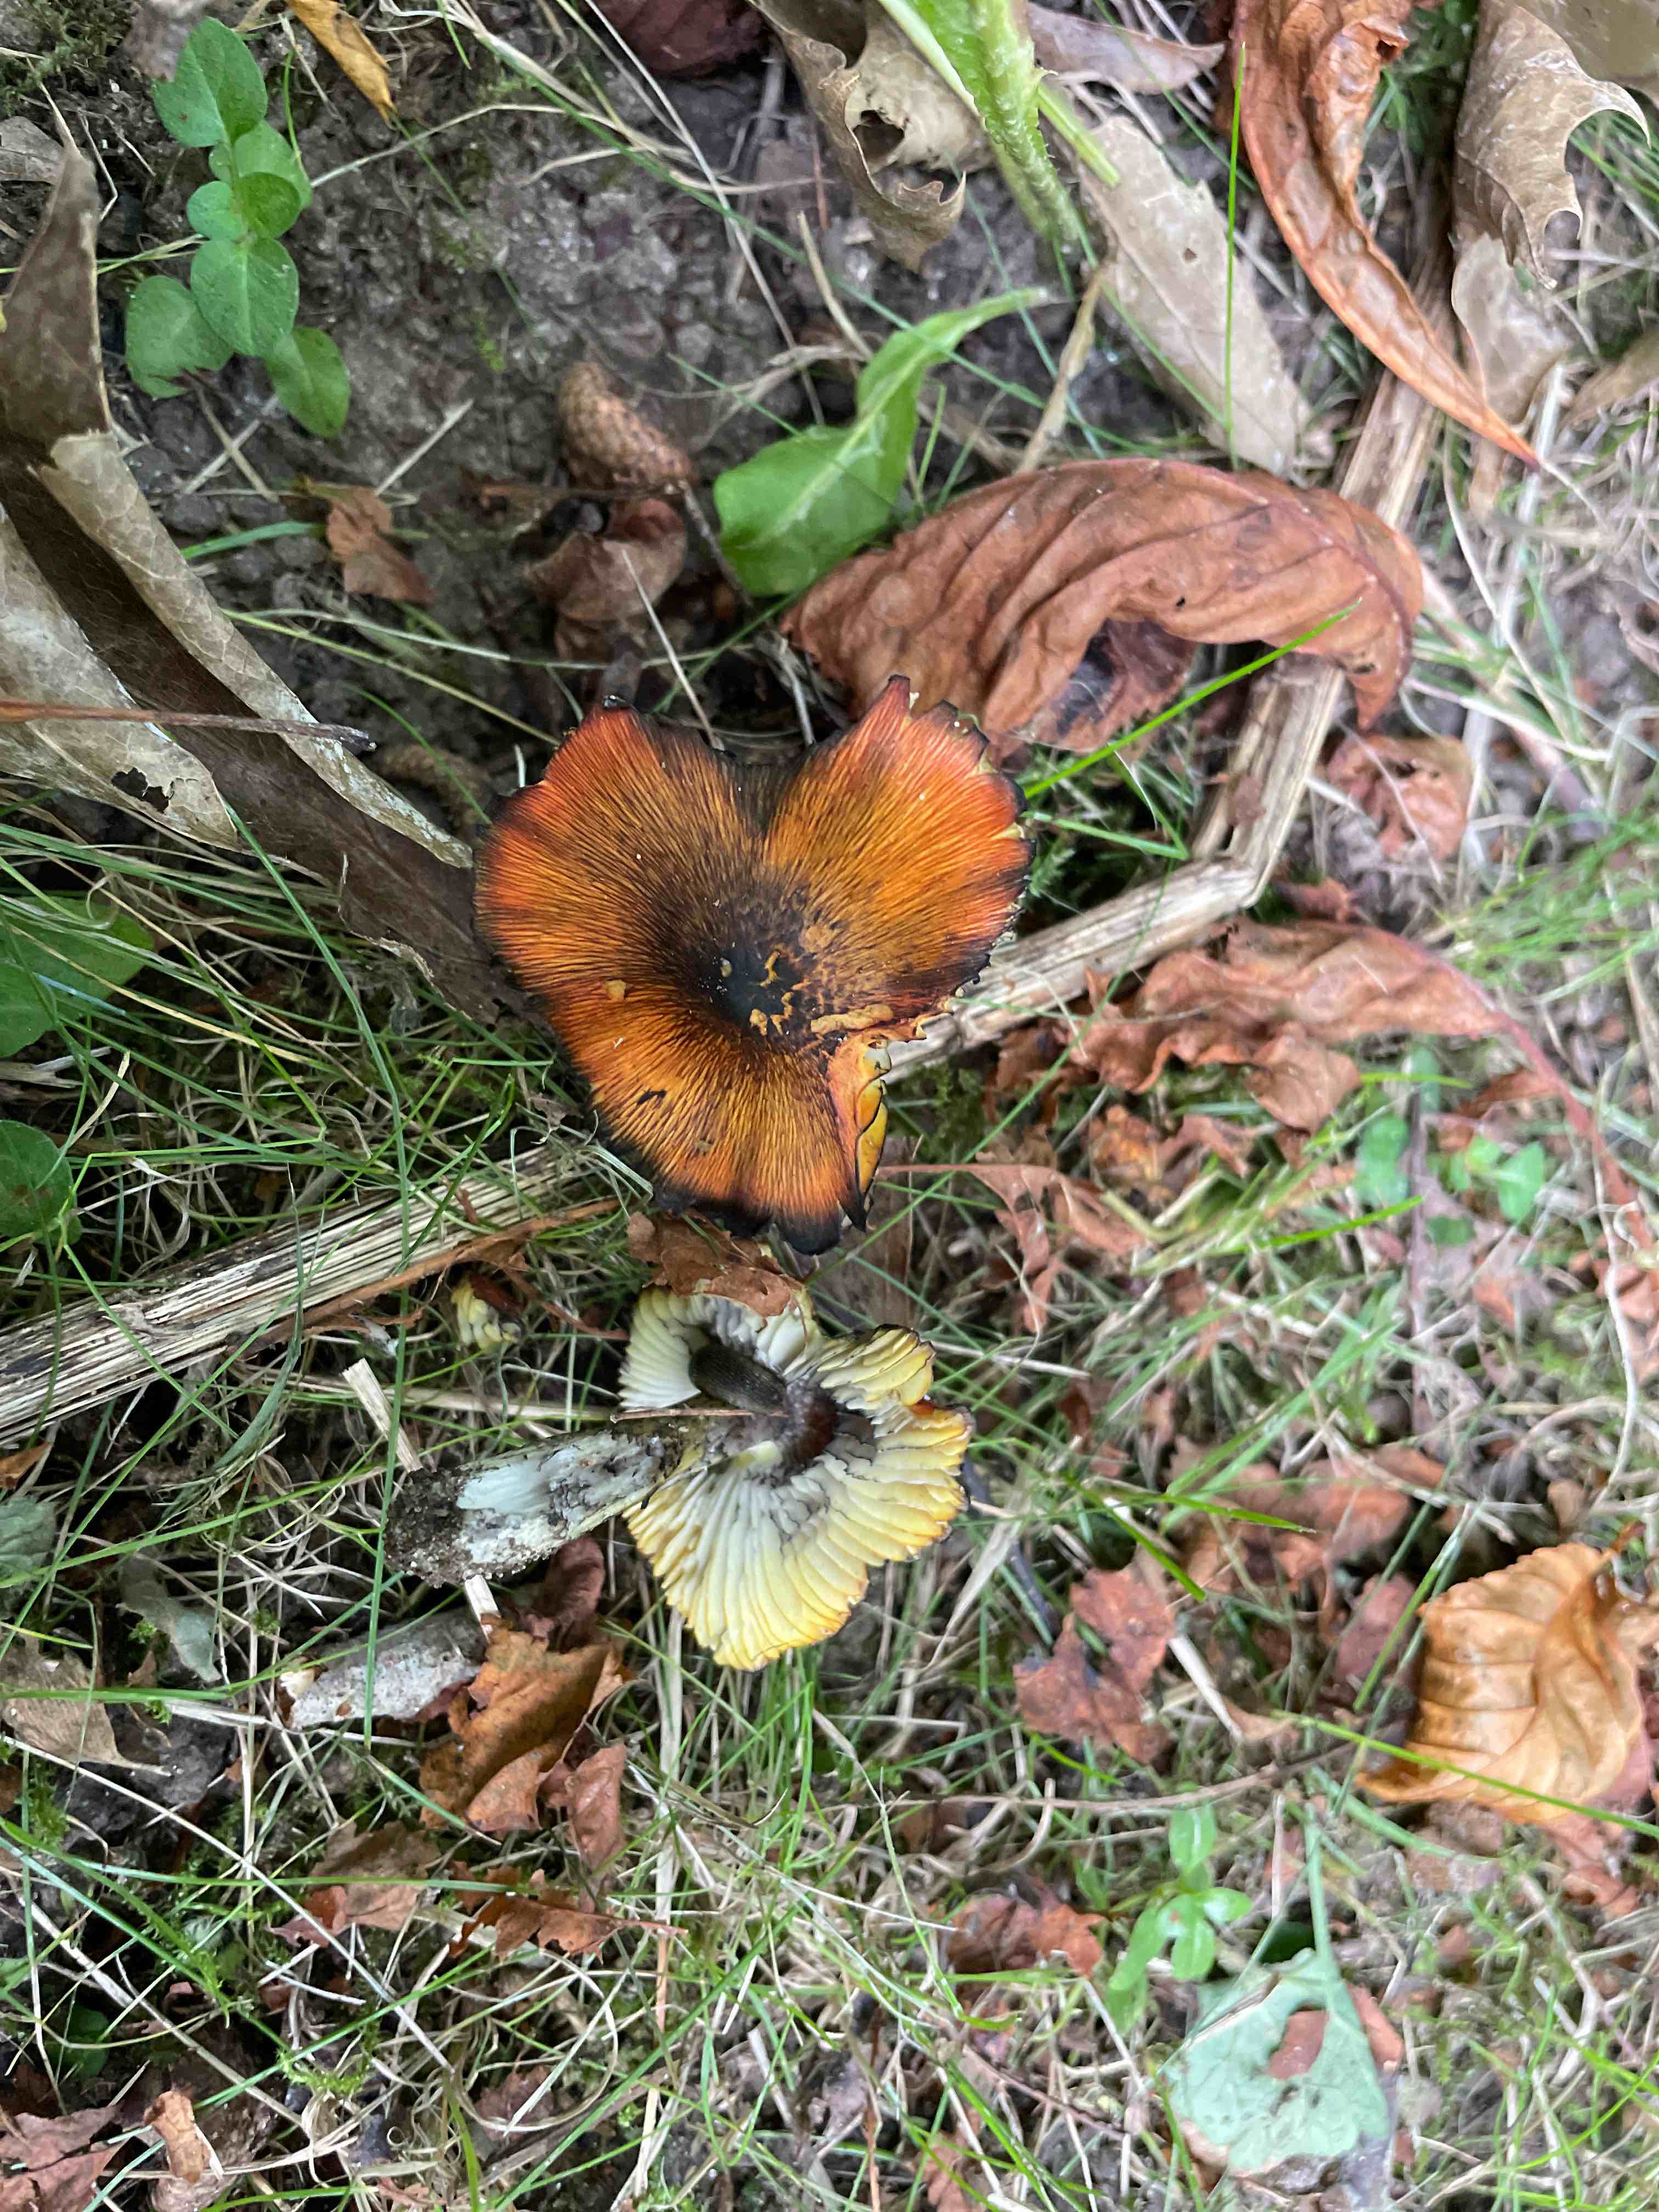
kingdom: Fungi
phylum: Basidiomycota
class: Agaricomycetes
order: Agaricales
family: Hygrophoraceae
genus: Hygrocybe
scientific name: Hygrocybe conica
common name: kegle-vokshat
